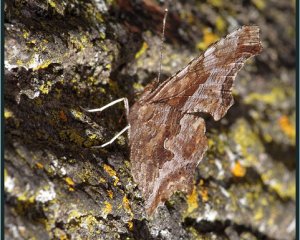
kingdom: Animalia
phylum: Arthropoda
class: Insecta
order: Lepidoptera
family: Nymphalidae
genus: Polygonia
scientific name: Polygonia comma
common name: Eastern Comma
